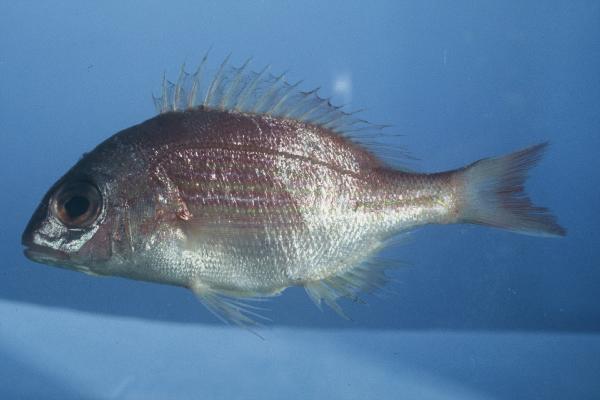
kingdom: Animalia
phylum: Chordata
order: Perciformes
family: Sparidae
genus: Pterogymnus
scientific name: Pterogymnus laniarius
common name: Panga
